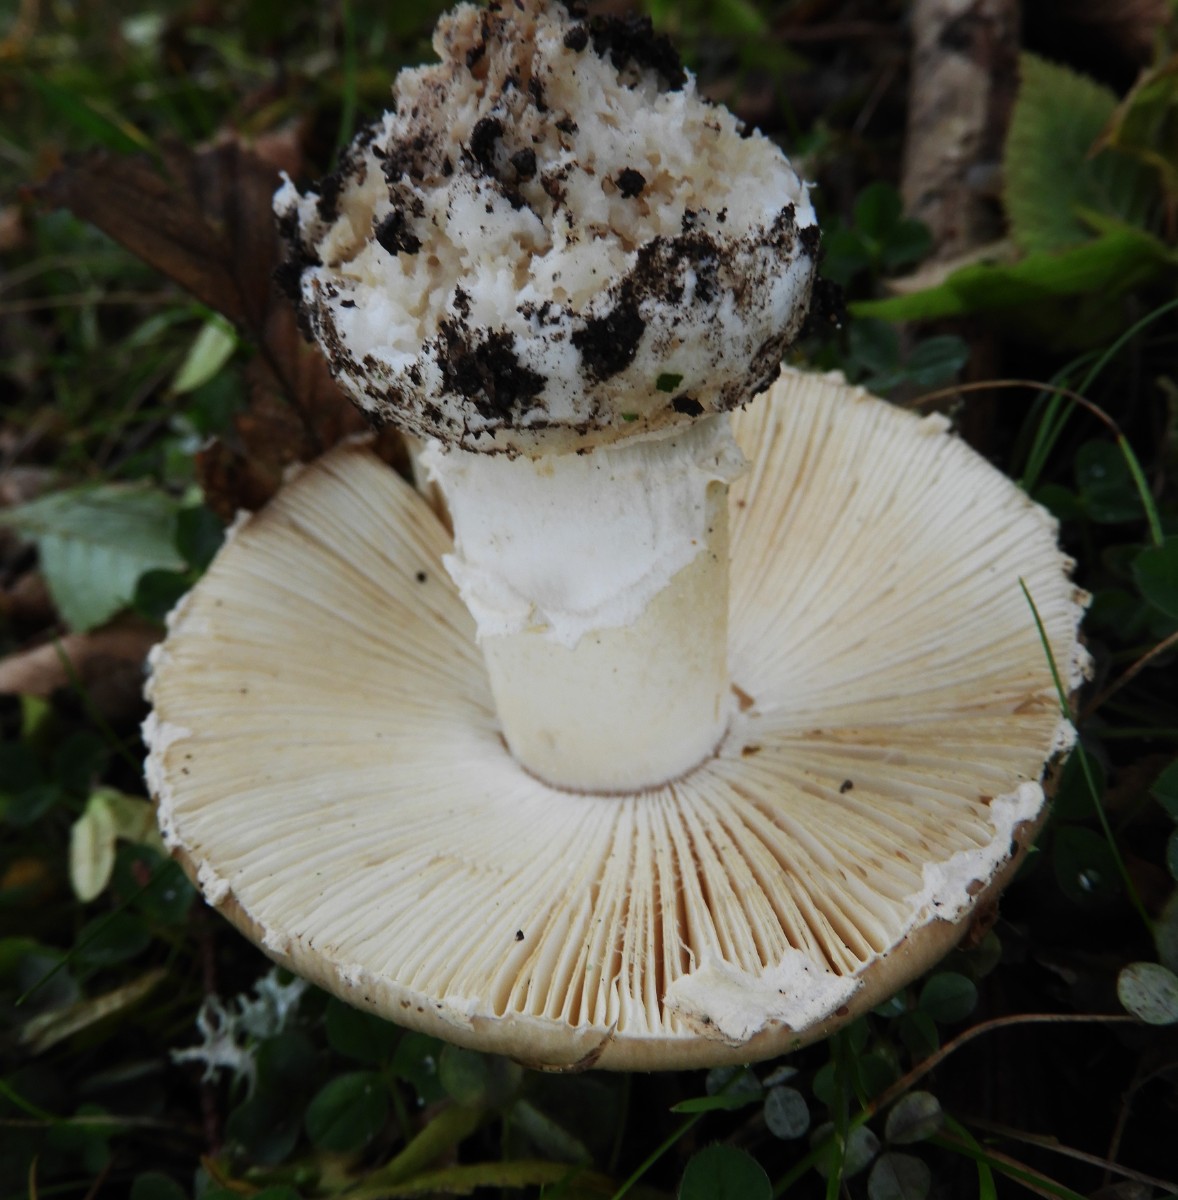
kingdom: Fungi
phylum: Basidiomycota
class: Agaricomycetes
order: Agaricales
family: Amanitaceae
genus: Amanita
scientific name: Amanita pantherina
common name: panter-fluesvamp
